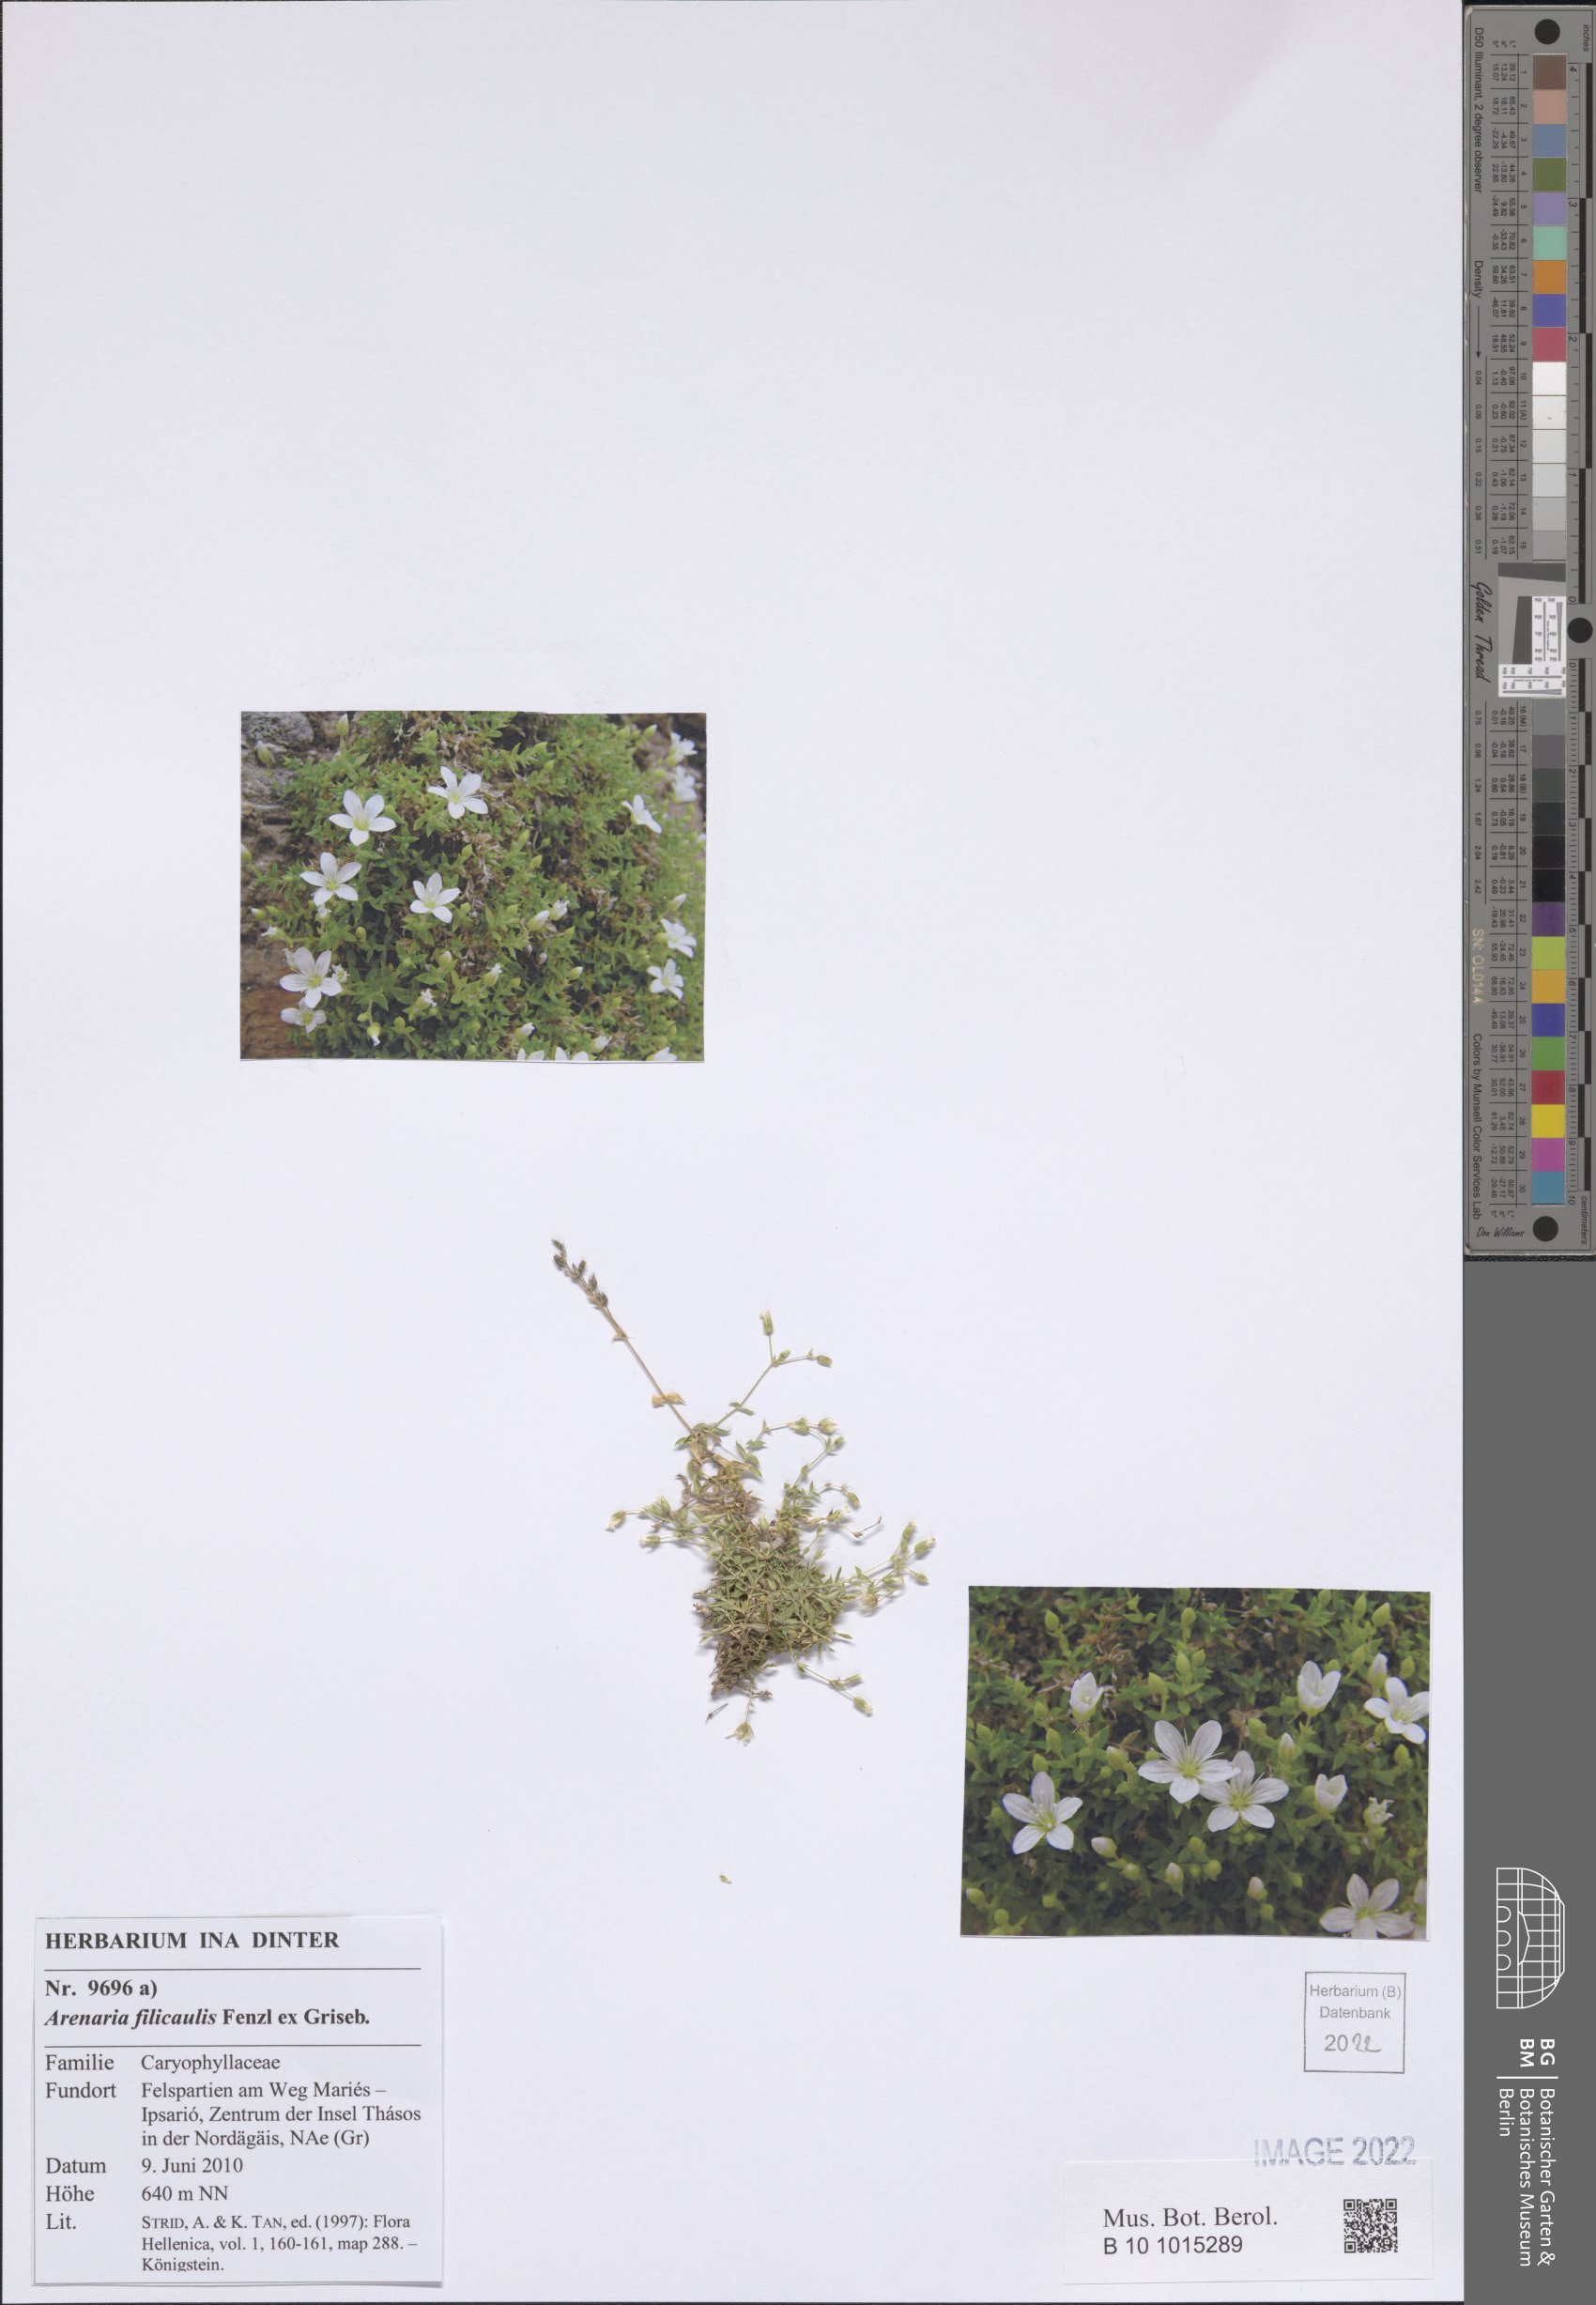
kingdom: Plantae
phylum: Tracheophyta
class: Magnoliopsida
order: Caryophyllales
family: Caryophyllaceae
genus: Arenaria
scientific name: Arenaria filicaulis
